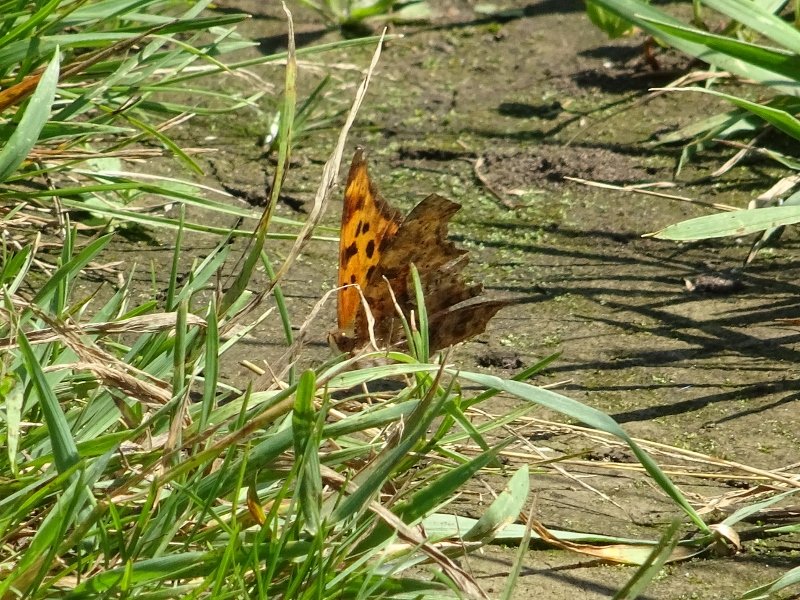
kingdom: Animalia
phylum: Arthropoda
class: Insecta
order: Lepidoptera
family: Nymphalidae
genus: Polygonia
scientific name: Polygonia interrogationis
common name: Question Mark
